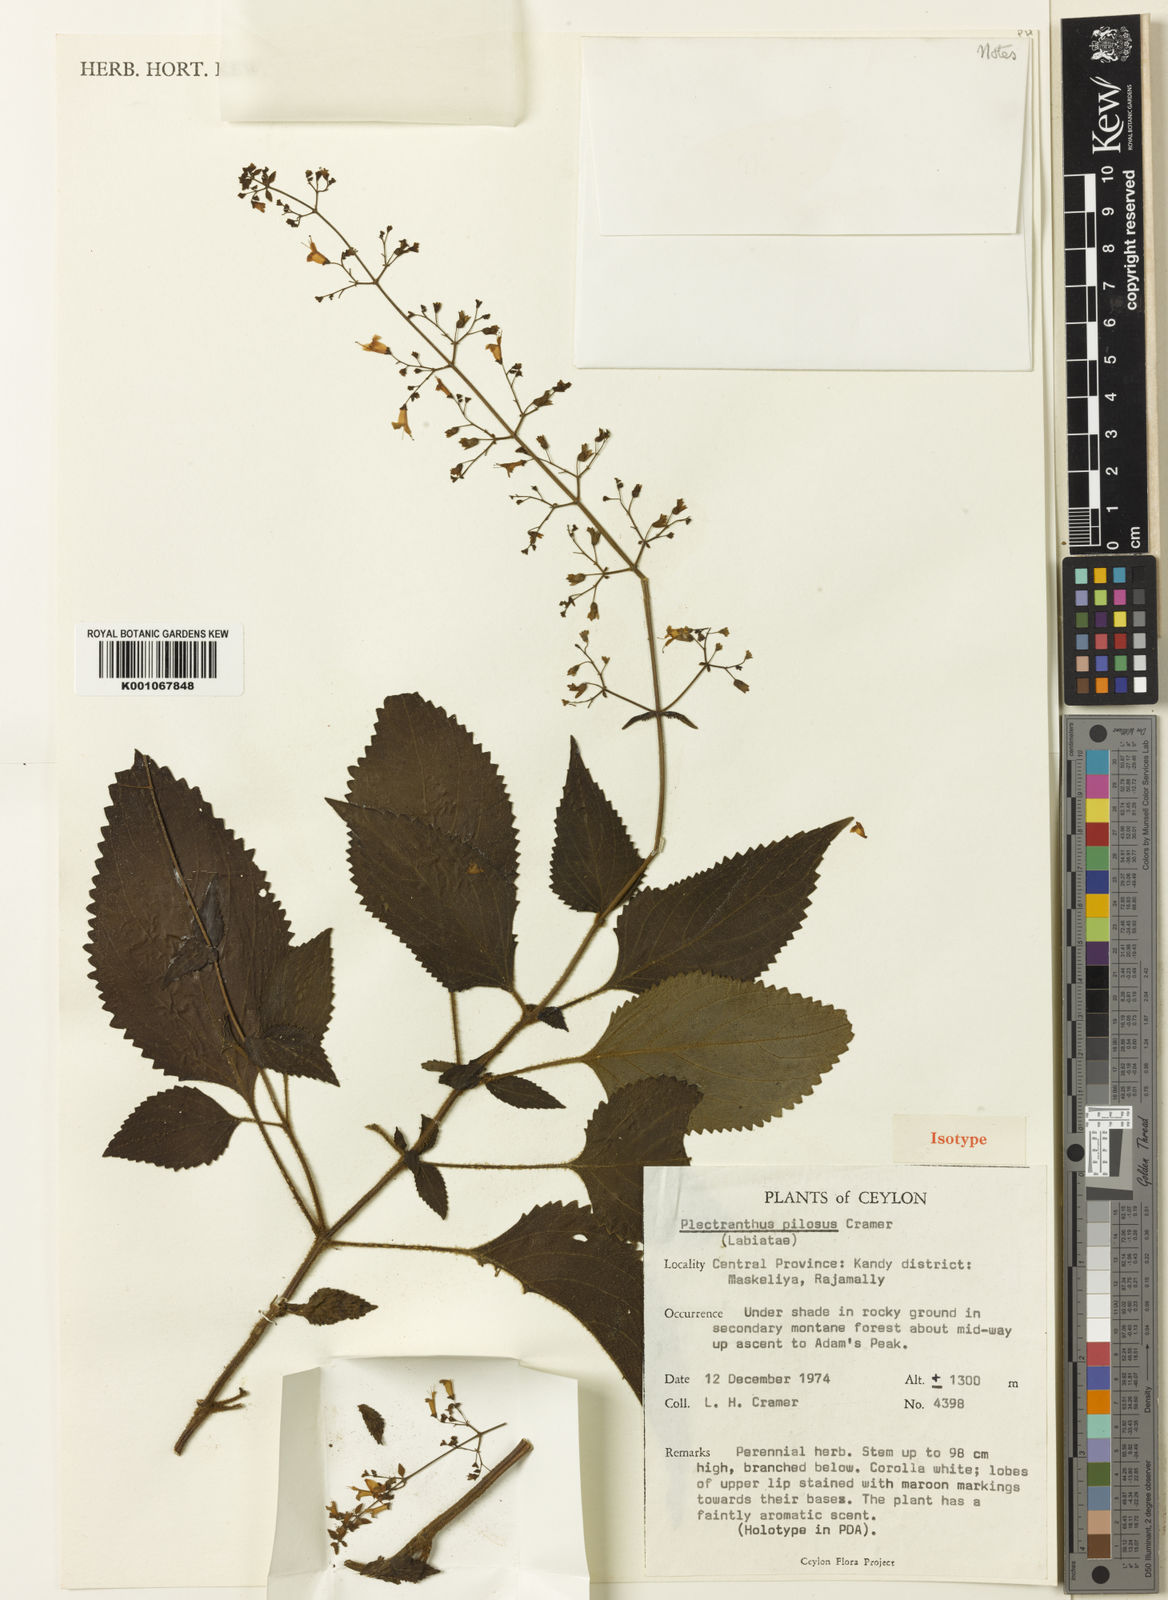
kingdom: Plantae
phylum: Tracheophyta
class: Magnoliopsida
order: Lamiales
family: Lamiaceae
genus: Isodon
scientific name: Isodon nigrescens
